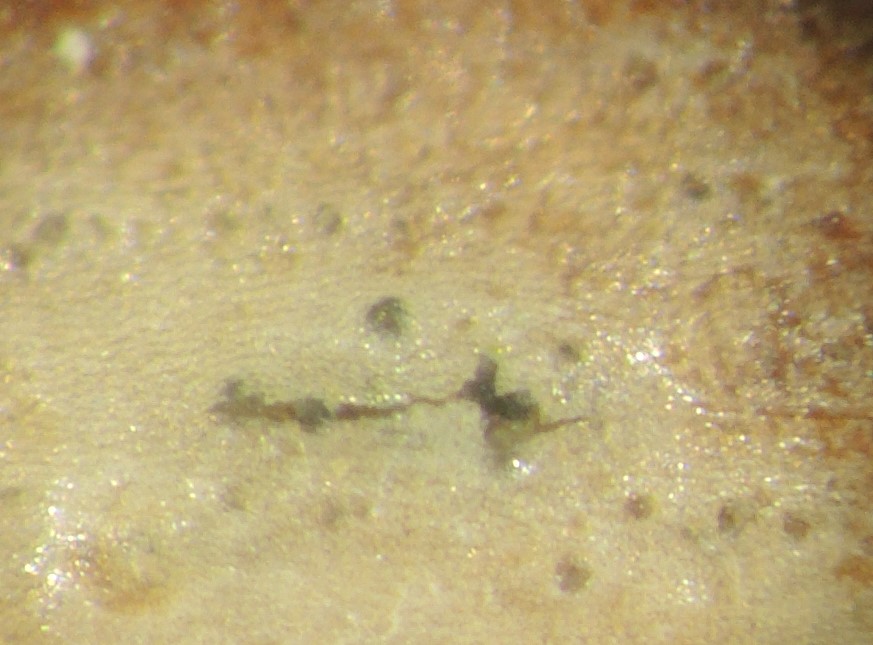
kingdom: Fungi
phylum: Ascomycota
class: Sordariomycetes
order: Diaporthales
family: Gnomoniaceae
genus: Gnomoniella
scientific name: Gnomoniella rubicola
